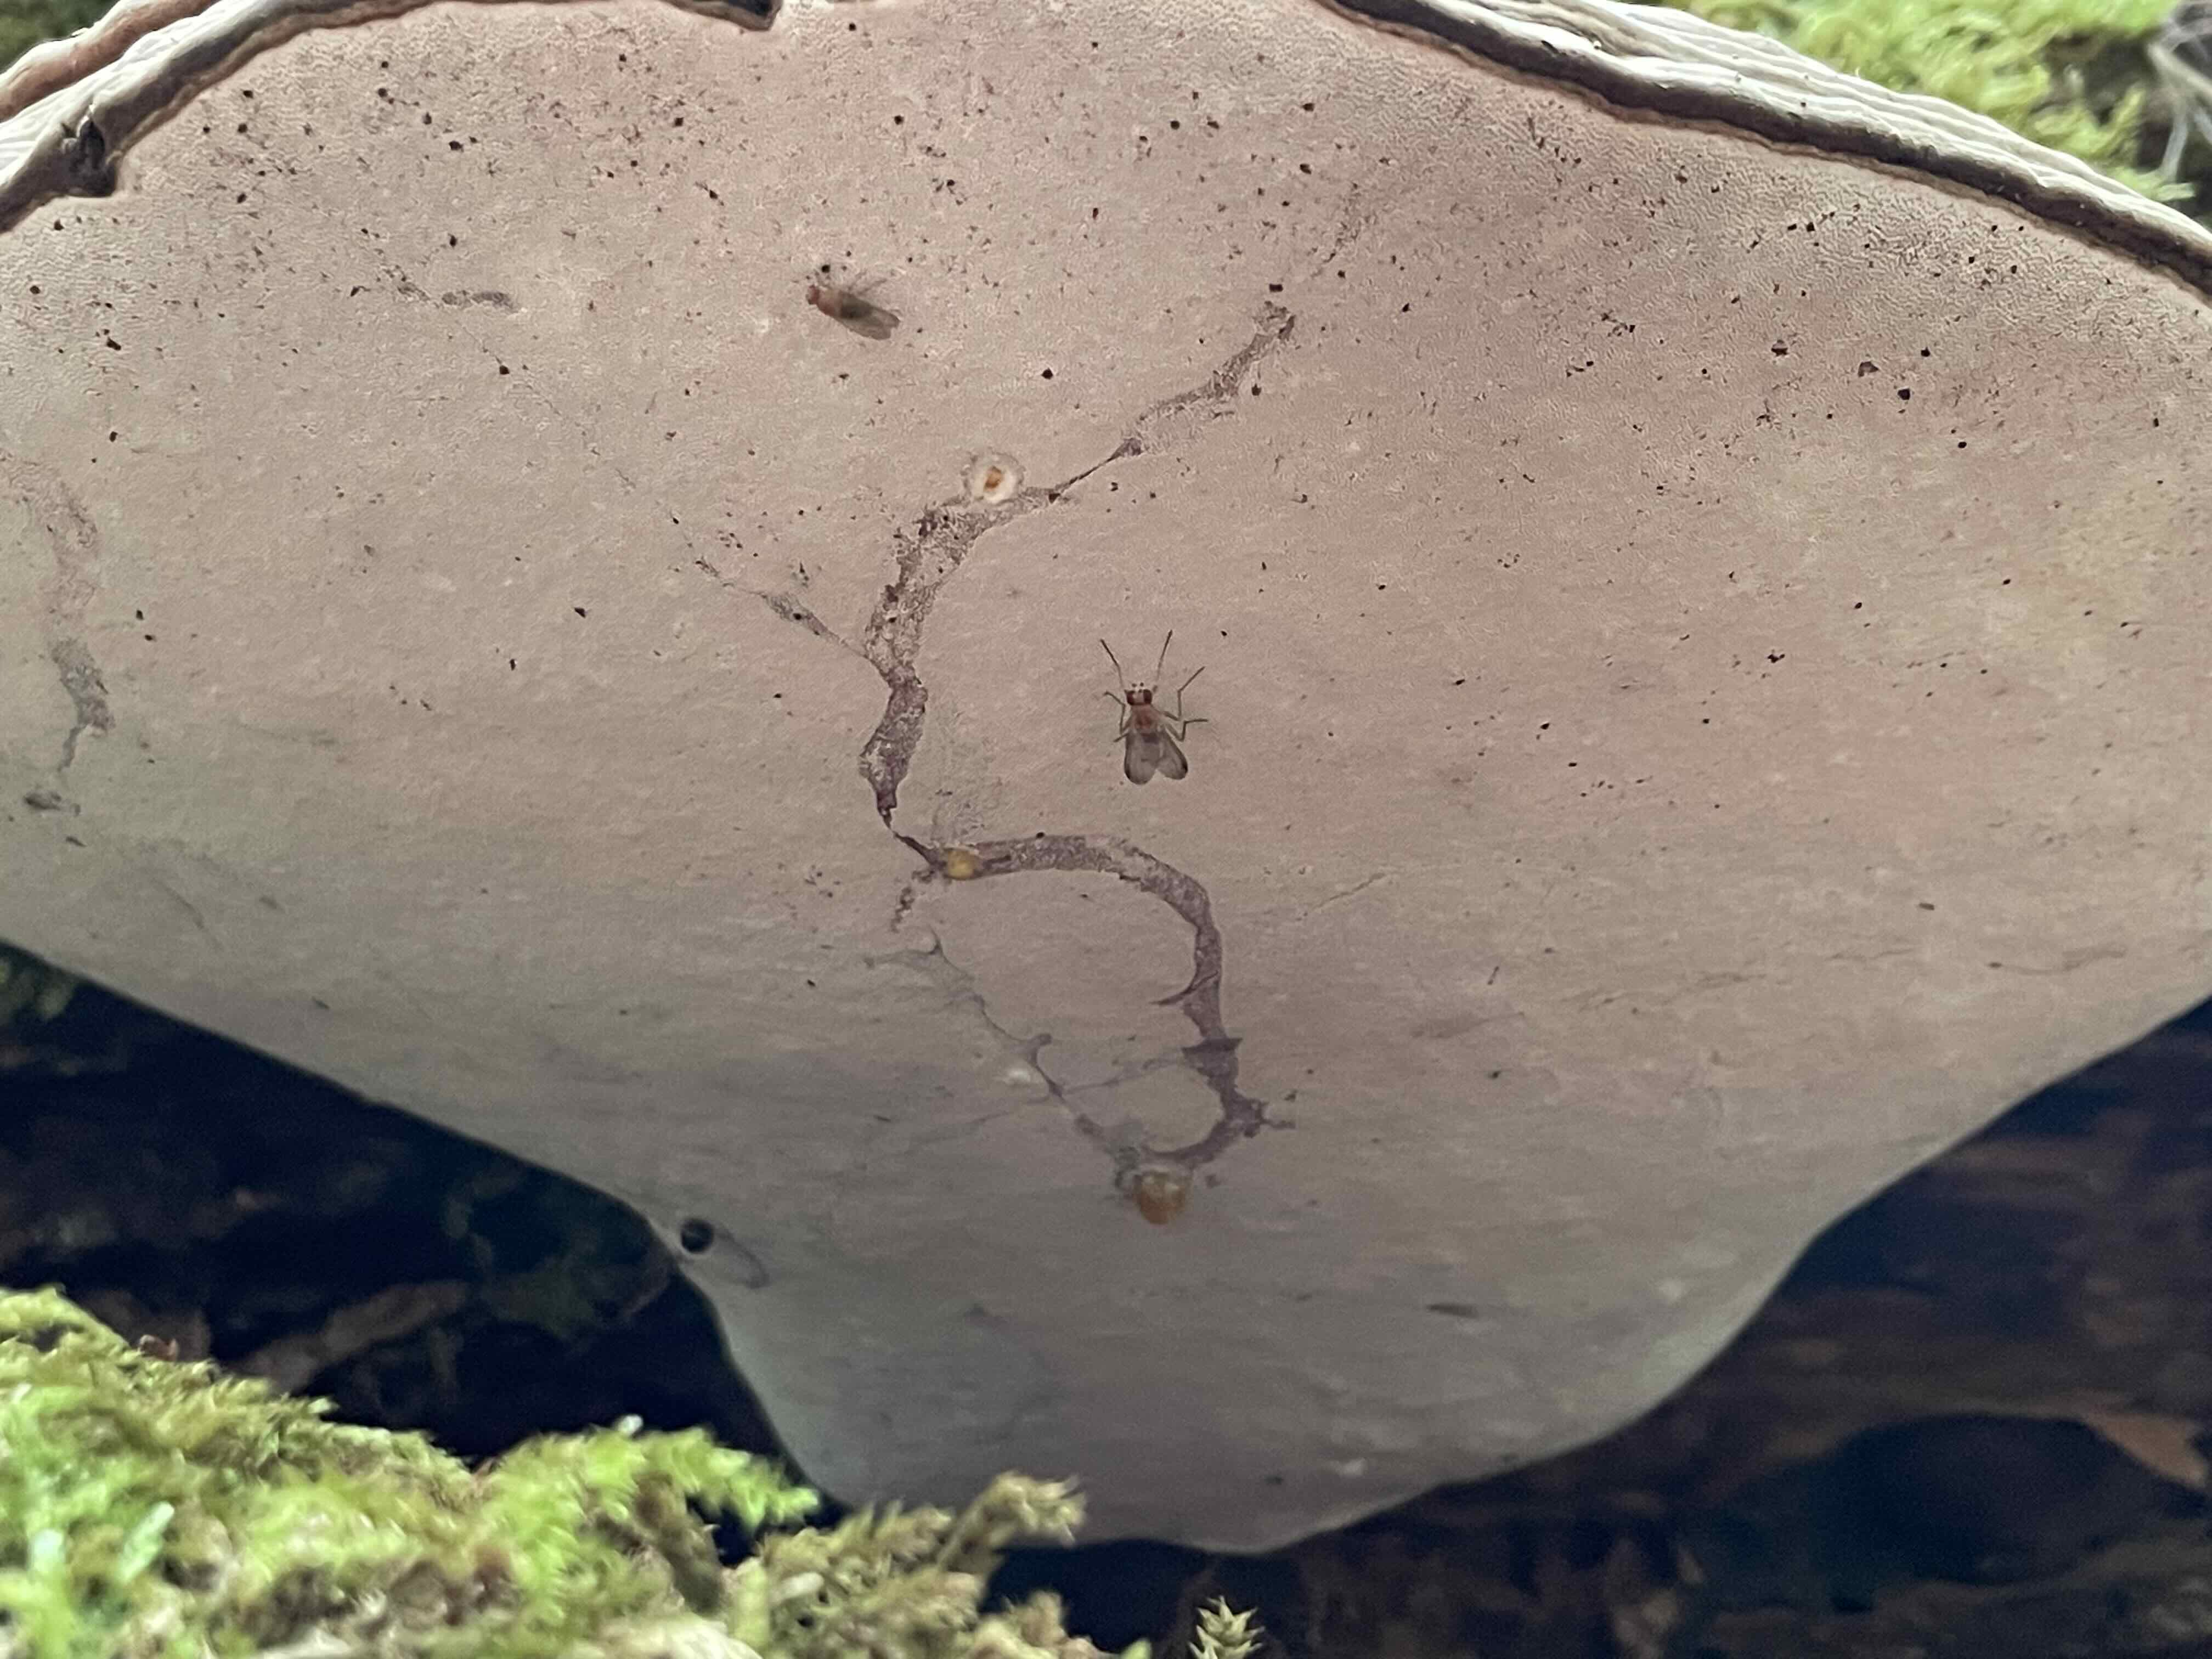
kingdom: Fungi
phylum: Basidiomycota
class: Agaricomycetes
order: Polyporales
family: Polyporaceae
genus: Ganoderma
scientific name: Ganoderma applanatum
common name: flad lakporesvamp
